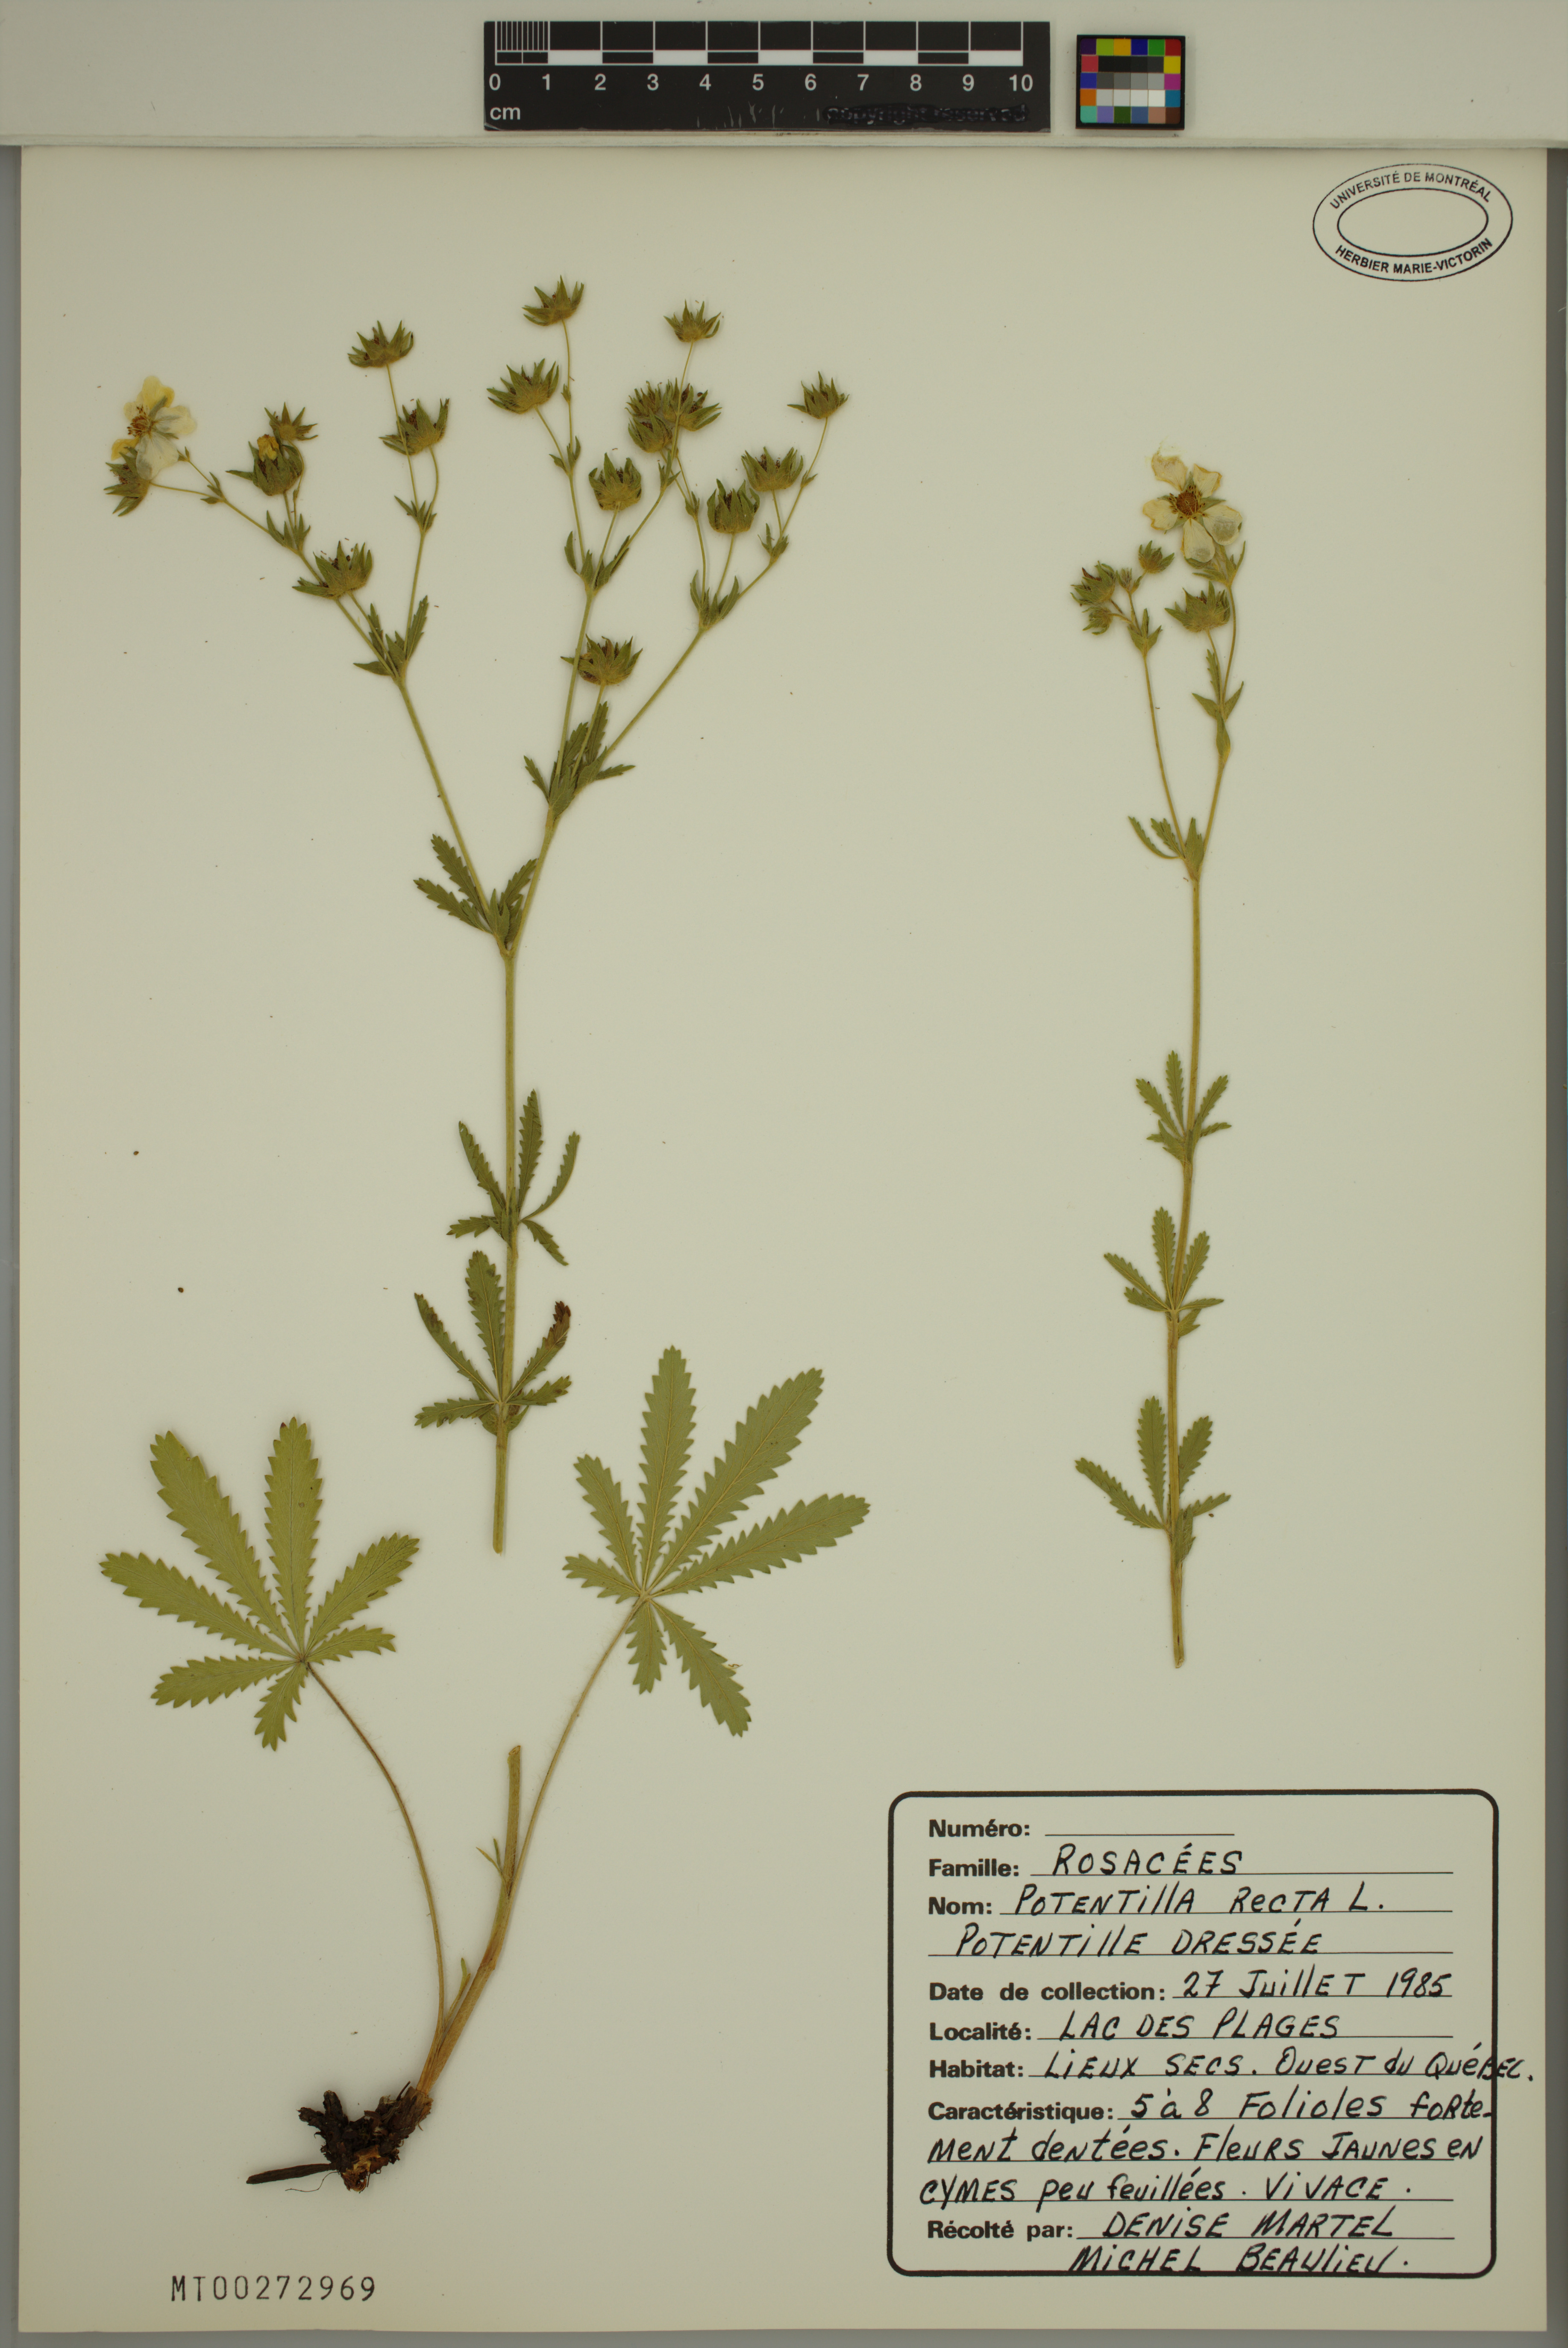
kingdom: Plantae
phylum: Tracheophyta
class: Magnoliopsida
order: Rosales
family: Rosaceae
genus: Potentilla
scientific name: Potentilla recta
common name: Sulphur cinquefoil
